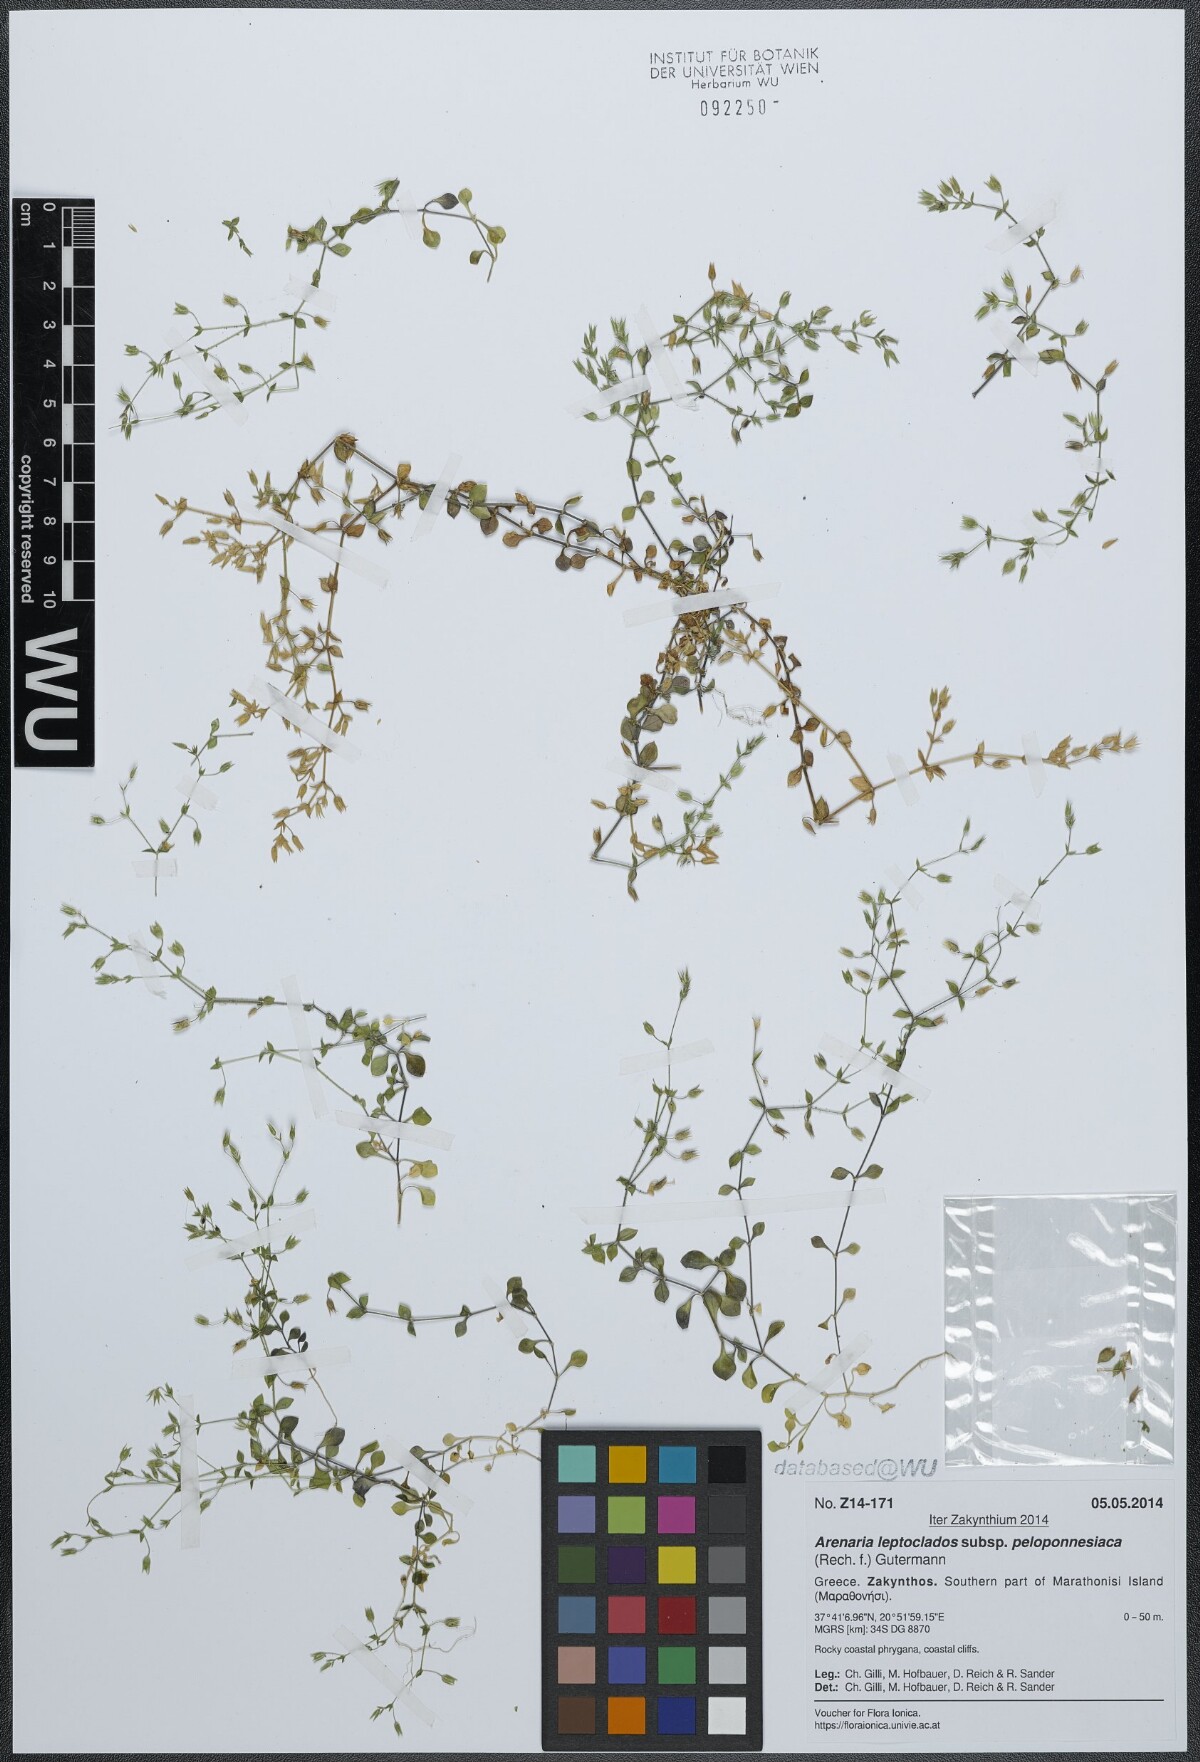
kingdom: Plantae
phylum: Tracheophyta
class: Magnoliopsida
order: Caryophyllales
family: Caryophyllaceae
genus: Arenaria
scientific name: Arenaria leptoclados
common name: Thyme-leaved sandwort
